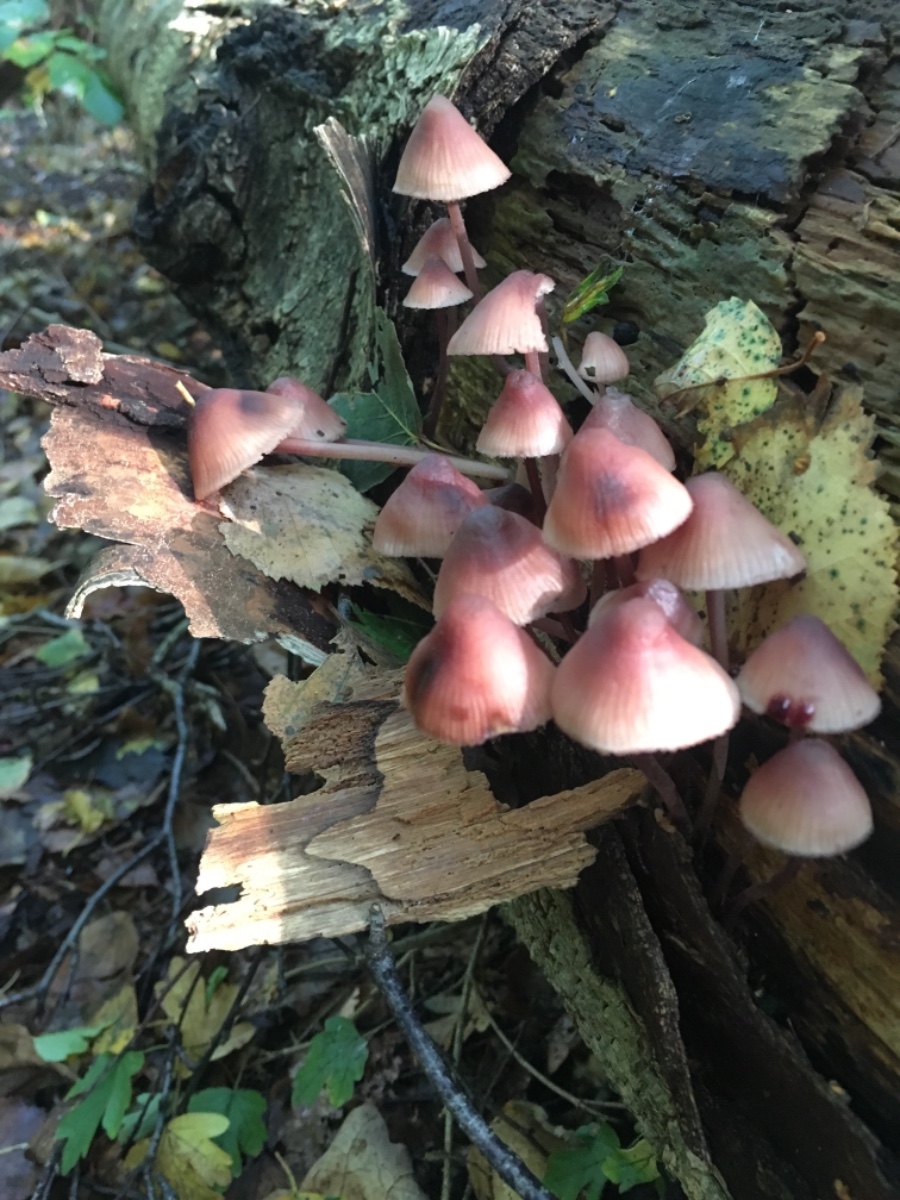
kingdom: Fungi
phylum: Basidiomycota
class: Agaricomycetes
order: Agaricales
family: Mycenaceae
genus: Mycena
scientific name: Mycena haematopus
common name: blødende huesvamp
